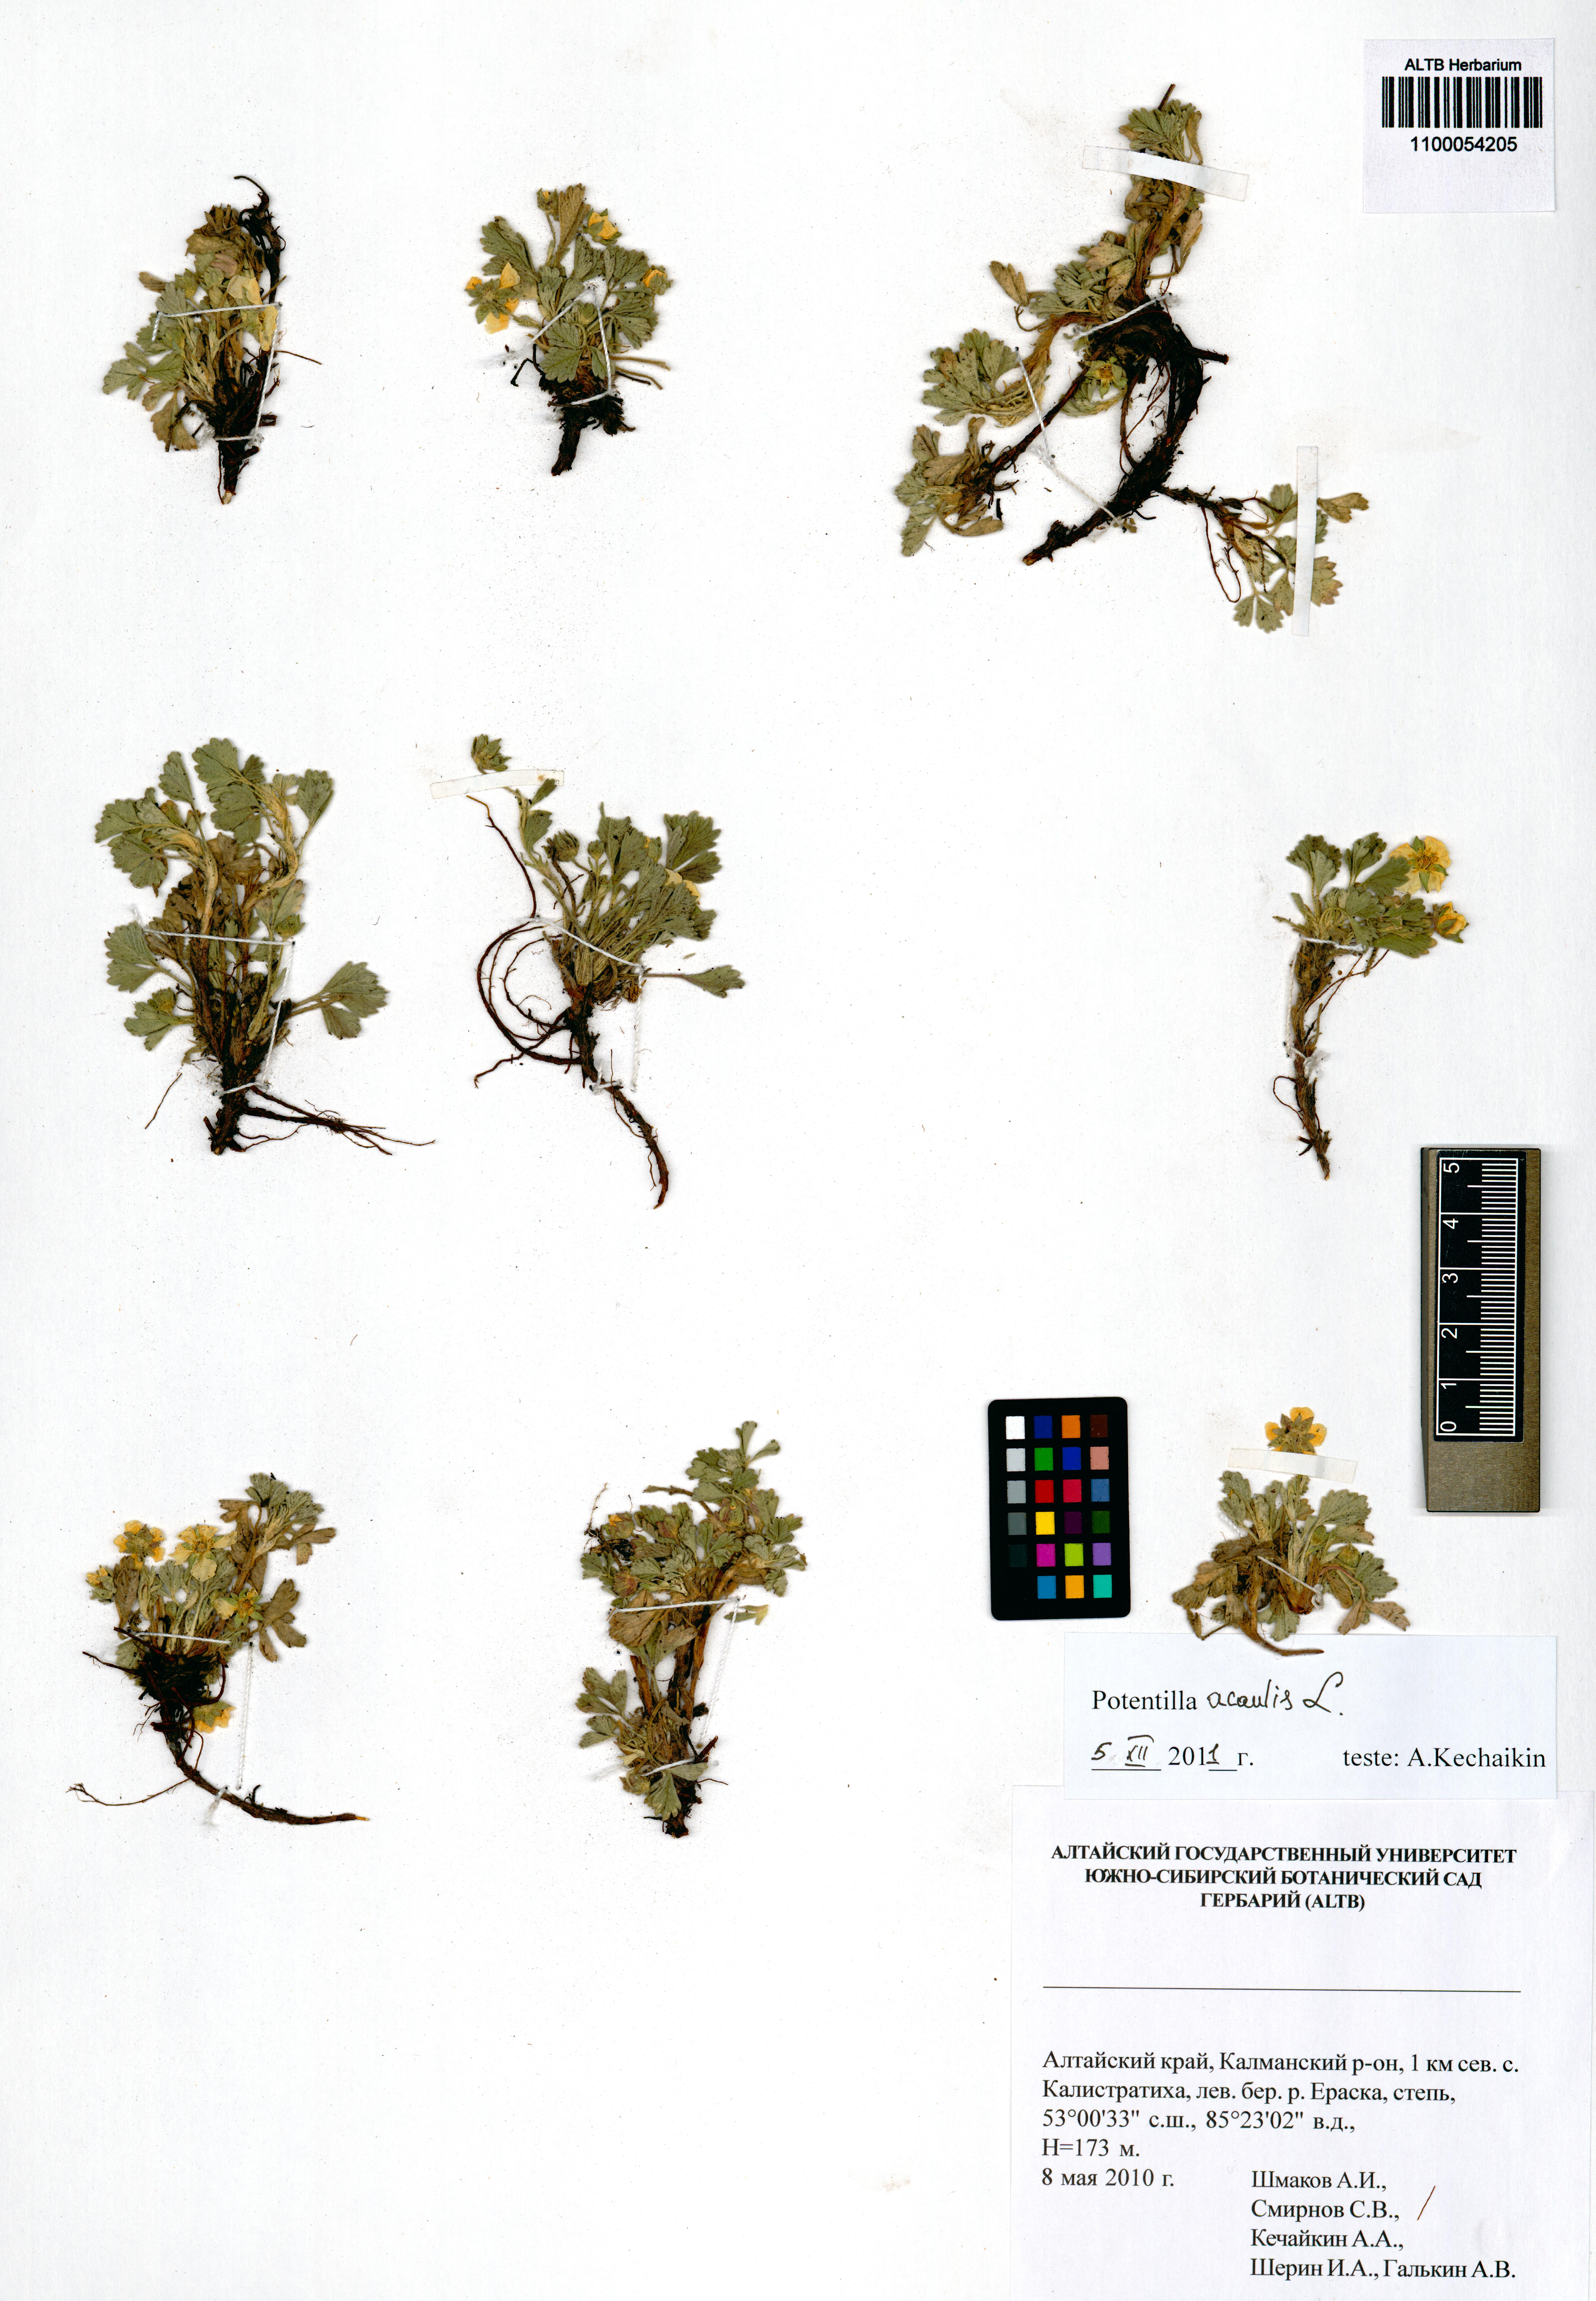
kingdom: Plantae
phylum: Tracheophyta
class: Magnoliopsida
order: Rosales
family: Rosaceae
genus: Potentilla
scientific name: Potentilla acaulis
